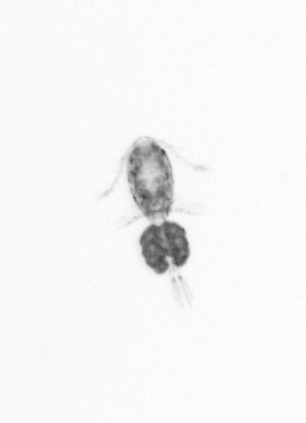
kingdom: Animalia
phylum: Arthropoda
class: Copepoda
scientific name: Copepoda
